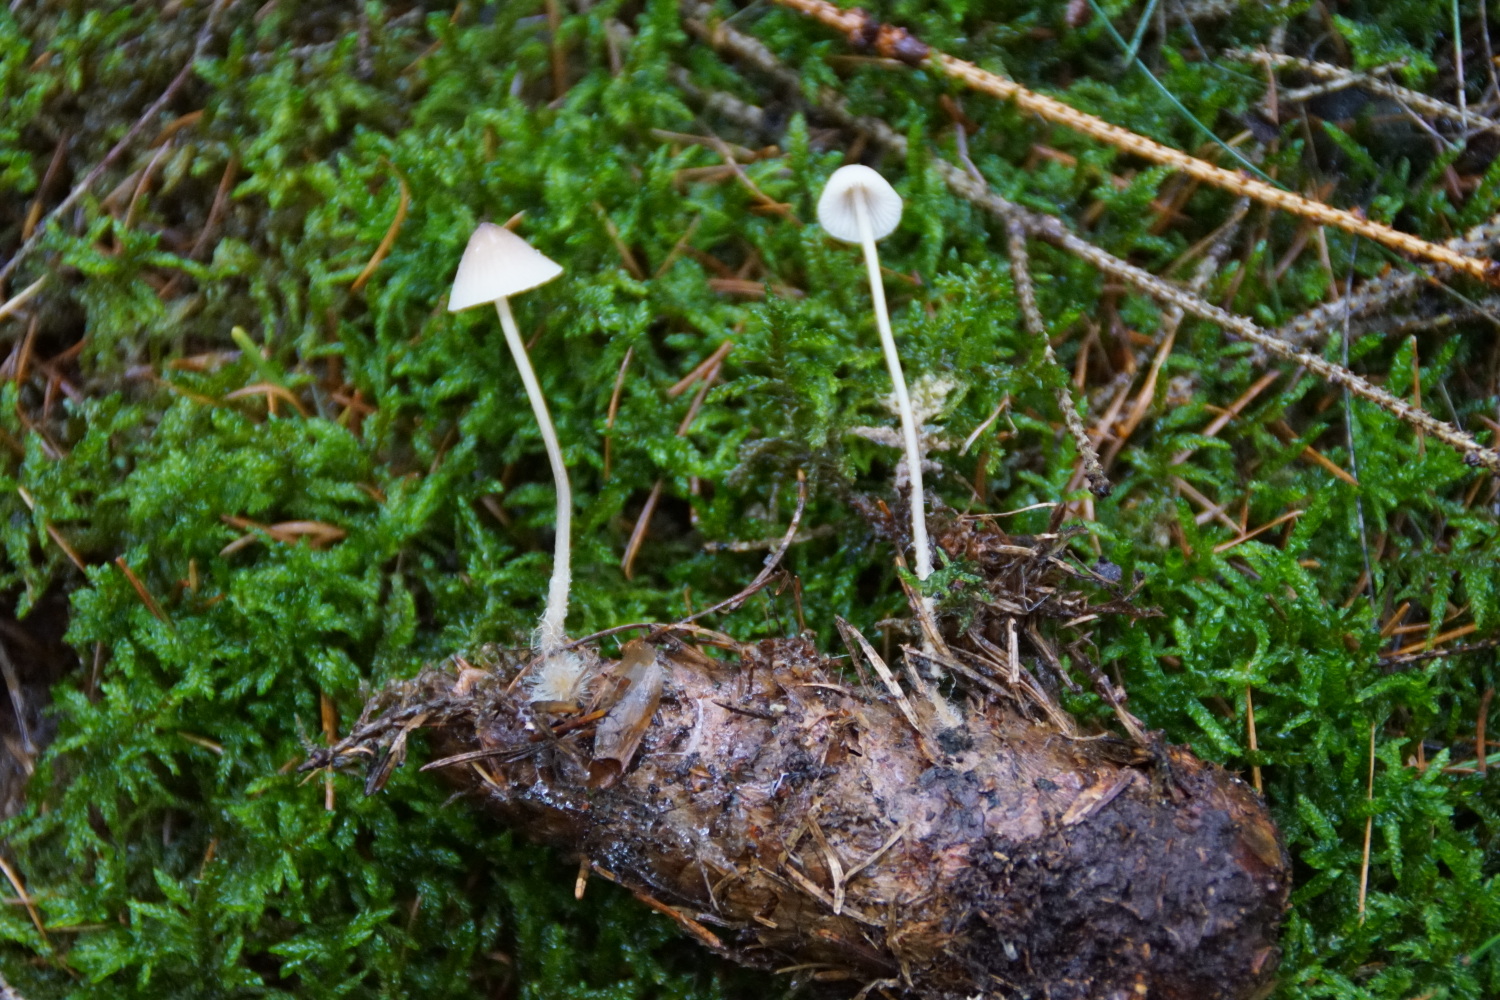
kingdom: Fungi
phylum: Basidiomycota
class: Agaricomycetes
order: Agaricales
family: Mycenaceae
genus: Mycena
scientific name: Mycena metata
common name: rødlig huesvamp
